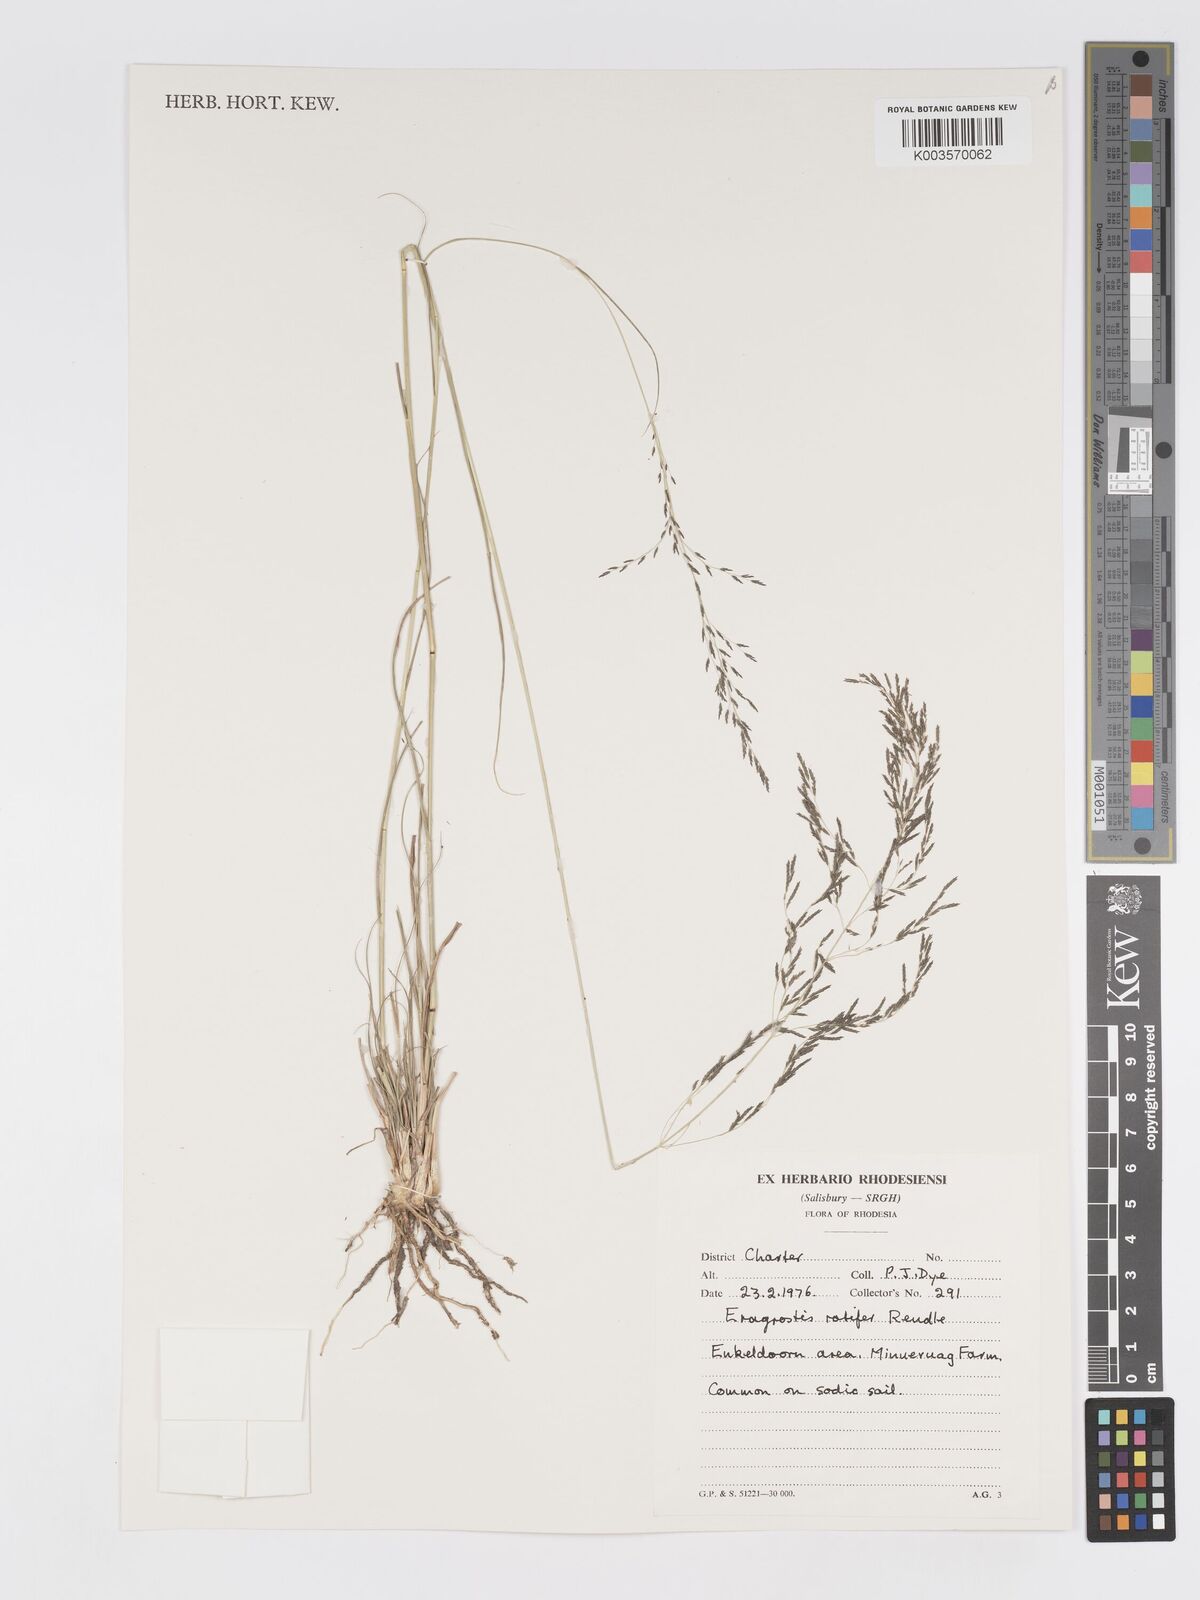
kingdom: Plantae
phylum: Tracheophyta
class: Liliopsida
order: Poales
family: Poaceae
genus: Eragrostis
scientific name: Eragrostis rotifer
